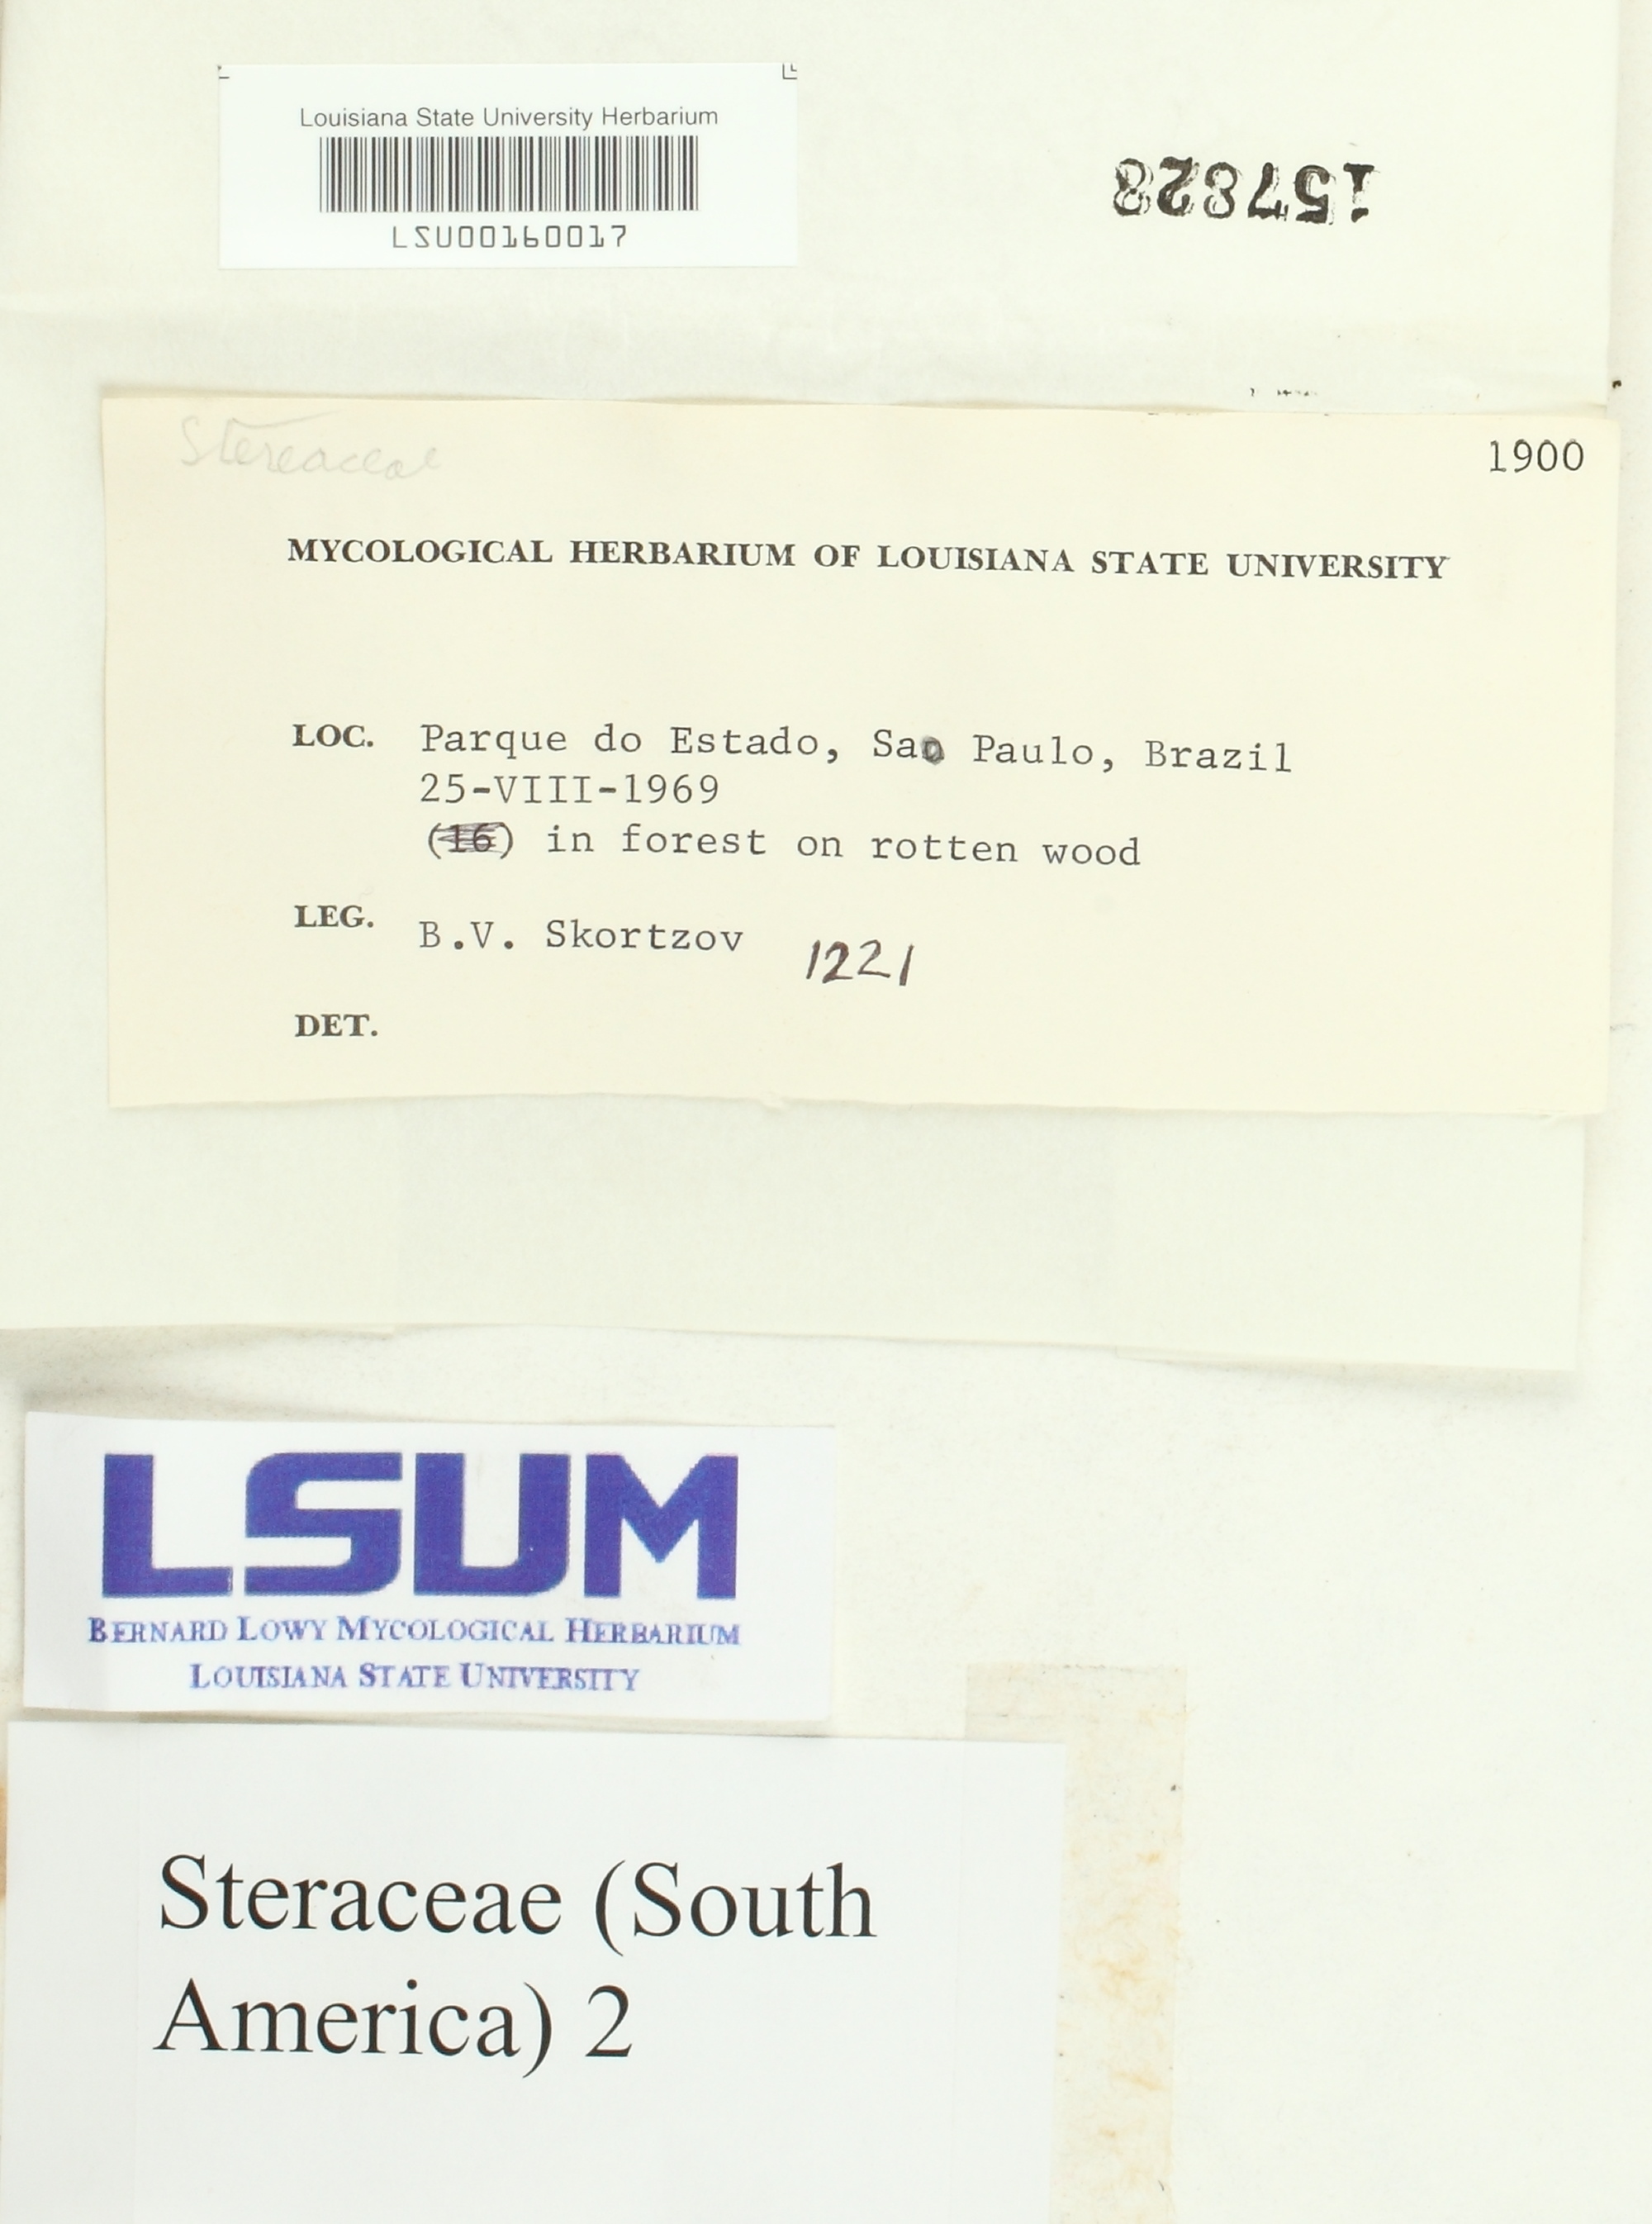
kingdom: Fungi
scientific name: Fungi
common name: Fungi
